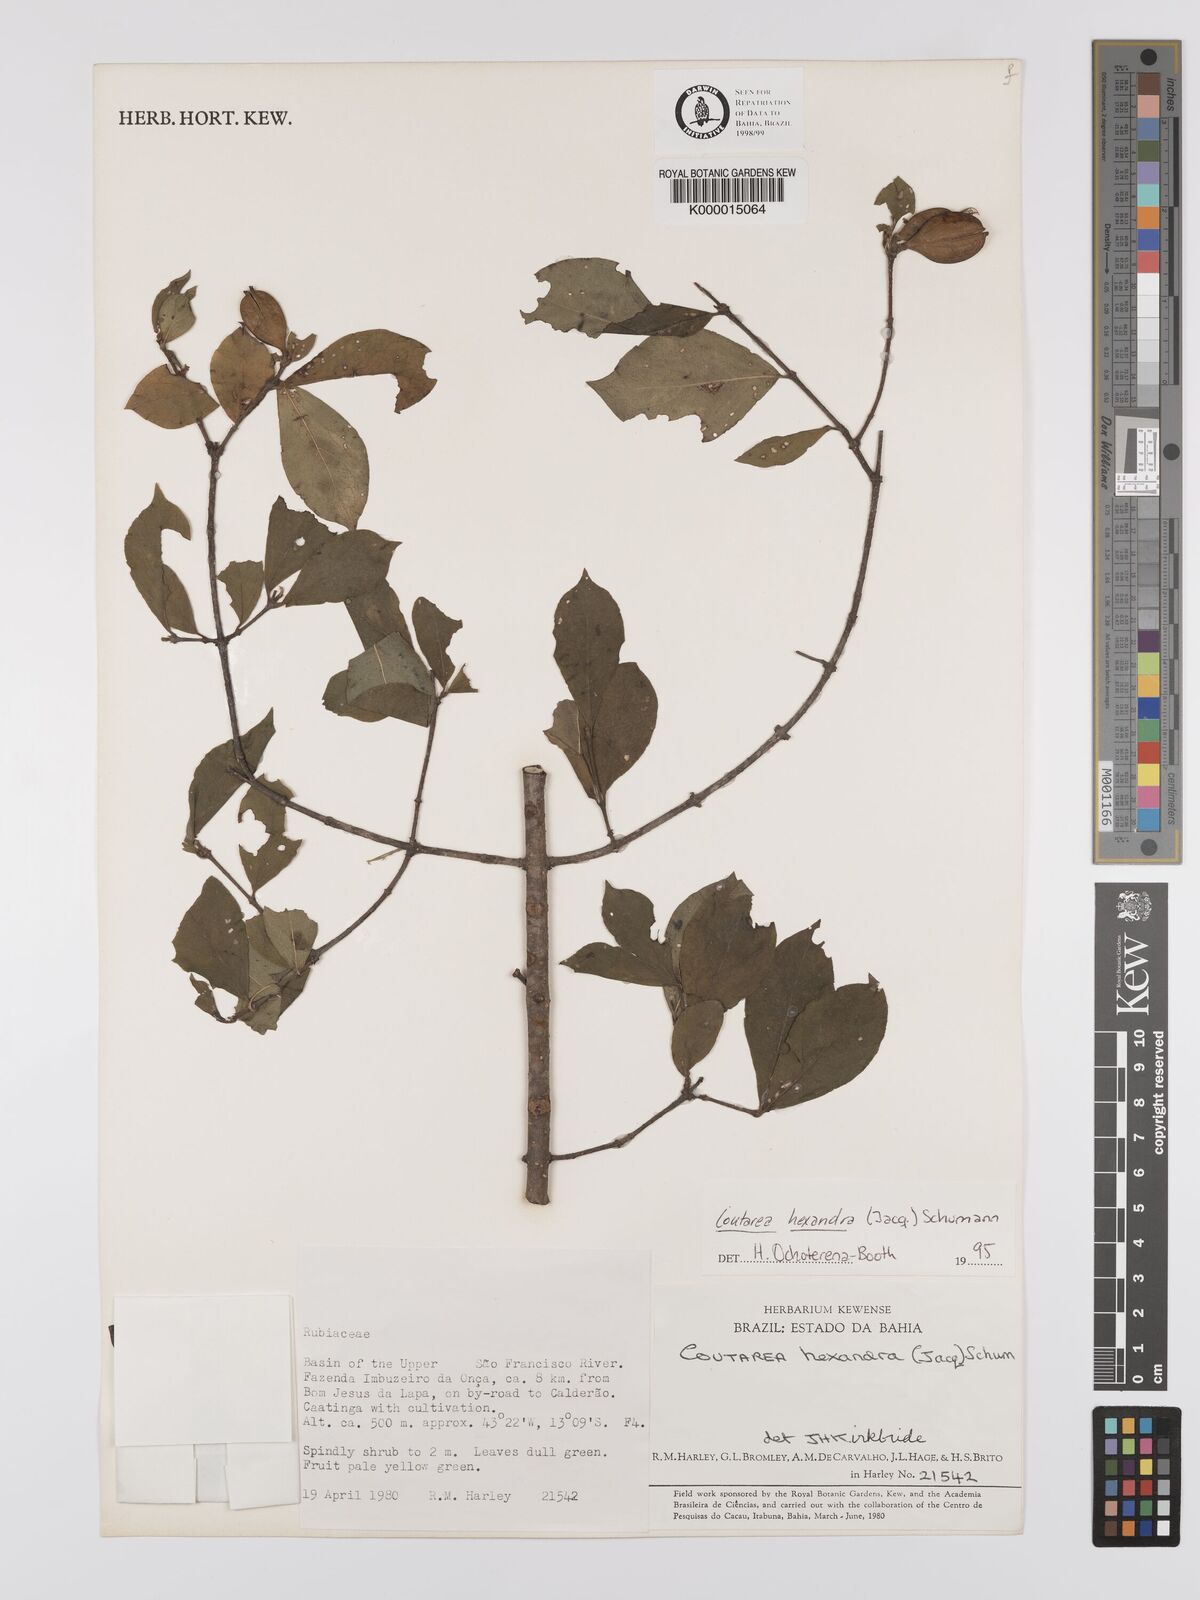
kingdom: Plantae
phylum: Tracheophyta
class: Magnoliopsida
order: Gentianales
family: Rubiaceae
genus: Coutarea
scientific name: Coutarea hexandra
